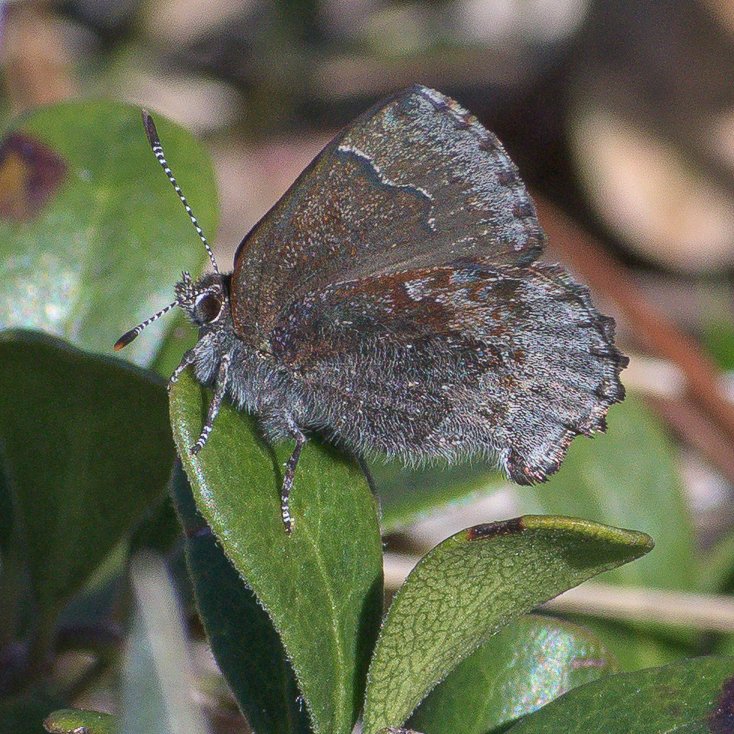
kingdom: Animalia
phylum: Arthropoda
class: Insecta
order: Lepidoptera
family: Lycaenidae
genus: Callophrys
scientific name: Callophrys polios
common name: Hoary Elfin
